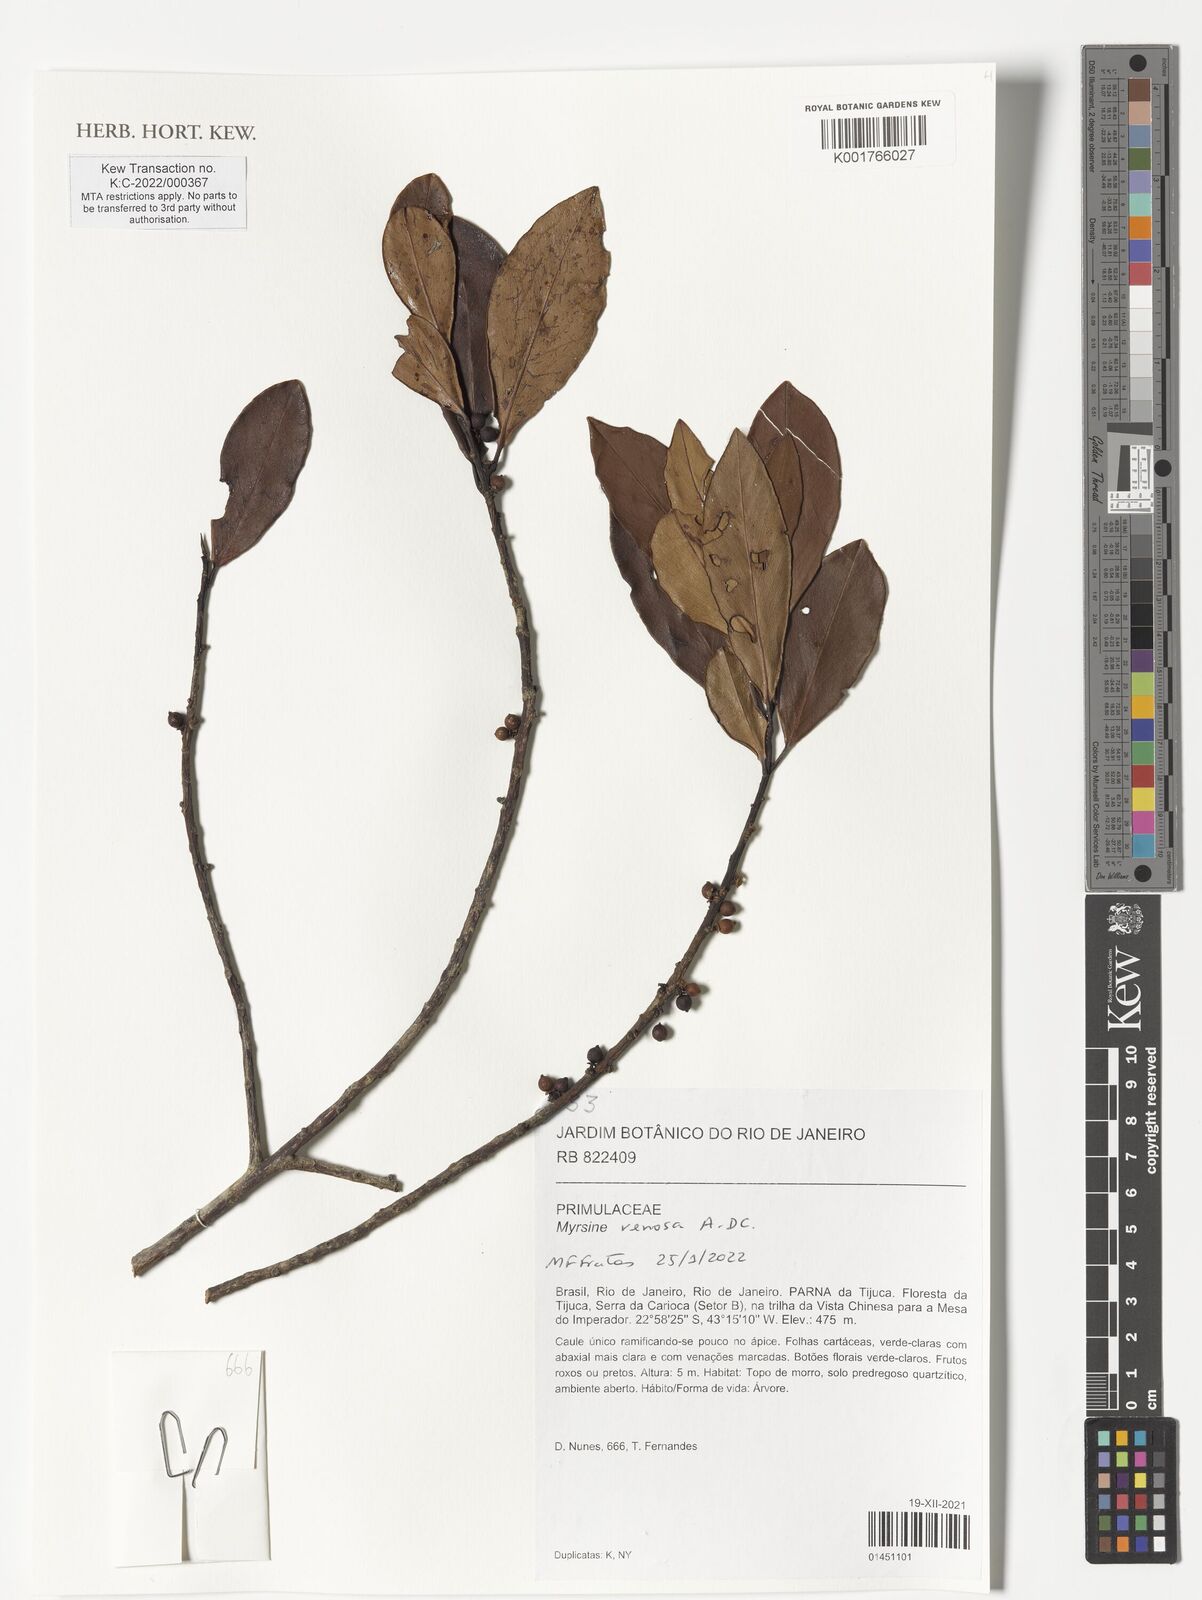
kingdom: Plantae
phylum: Tracheophyta
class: Magnoliopsida
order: Ericales
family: Primulaceae
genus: Myrsine
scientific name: Myrsine venosa
